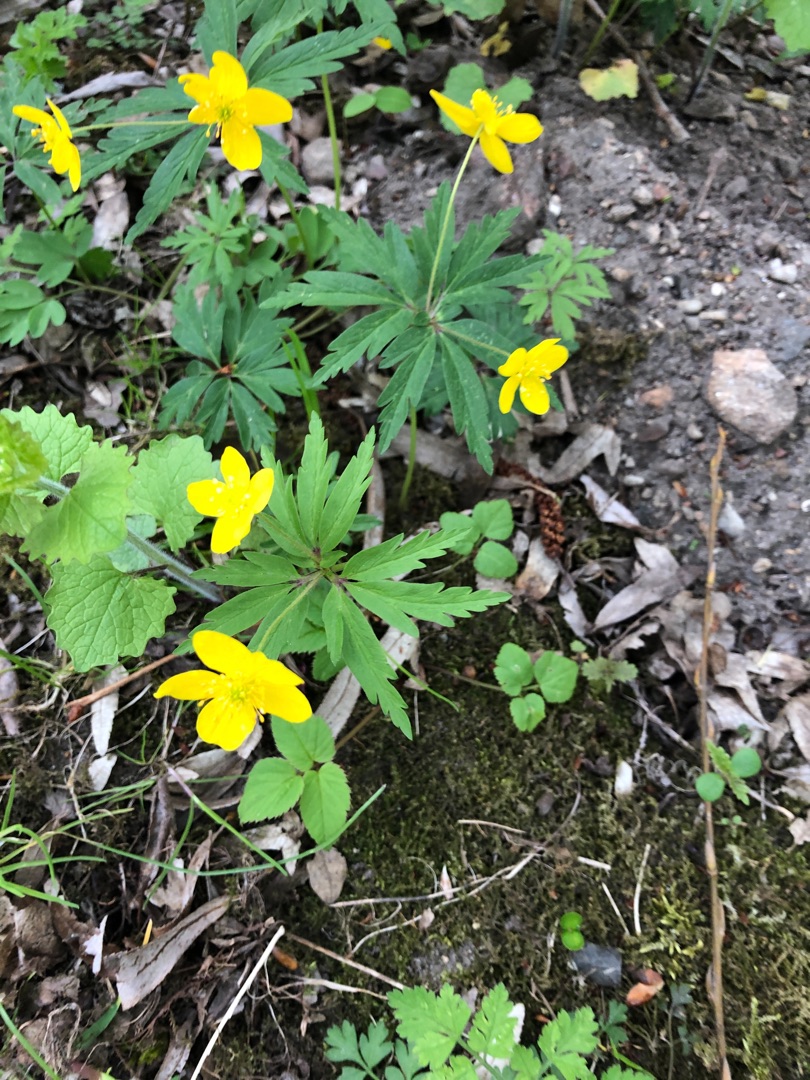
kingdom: Plantae
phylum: Tracheophyta
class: Magnoliopsida
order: Ranunculales
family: Ranunculaceae
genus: Anemone
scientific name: Anemone ranunculoides
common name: Gul anemone
